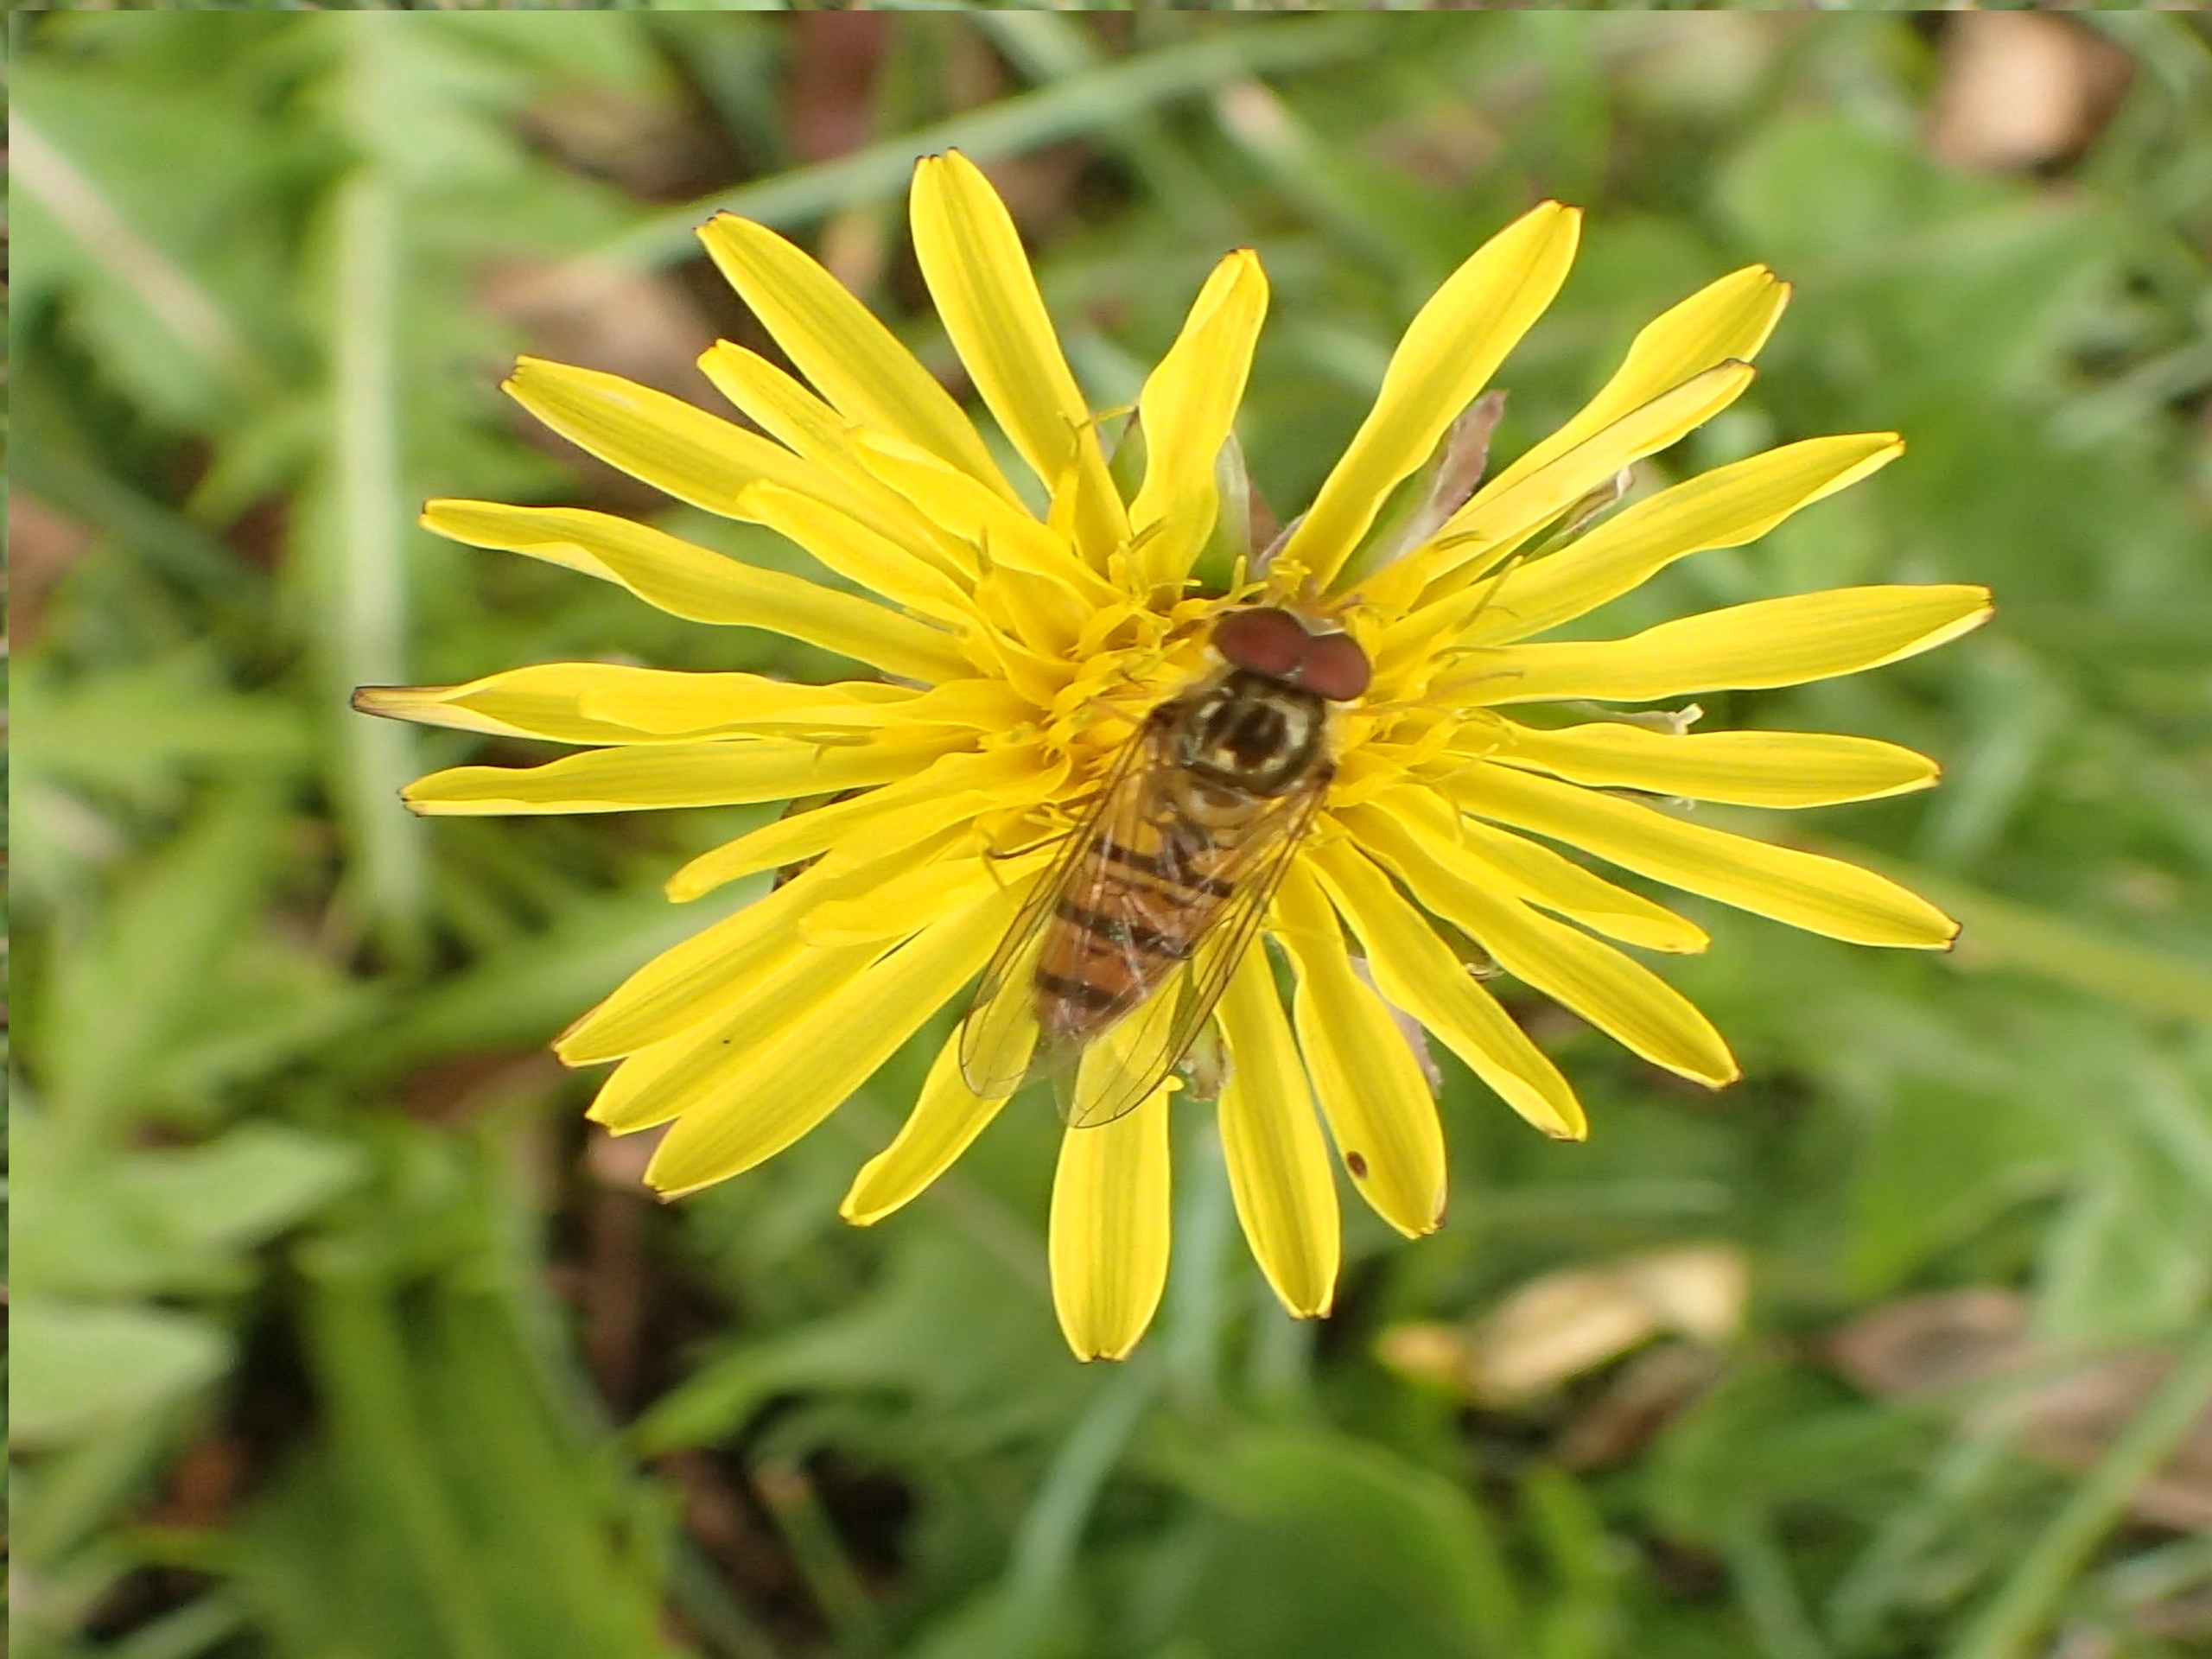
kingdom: Animalia
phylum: Arthropoda
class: Insecta
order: Diptera
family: Syrphidae
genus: Episyrphus
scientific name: Episyrphus balteatus
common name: Dobbeltbåndet svirreflue
